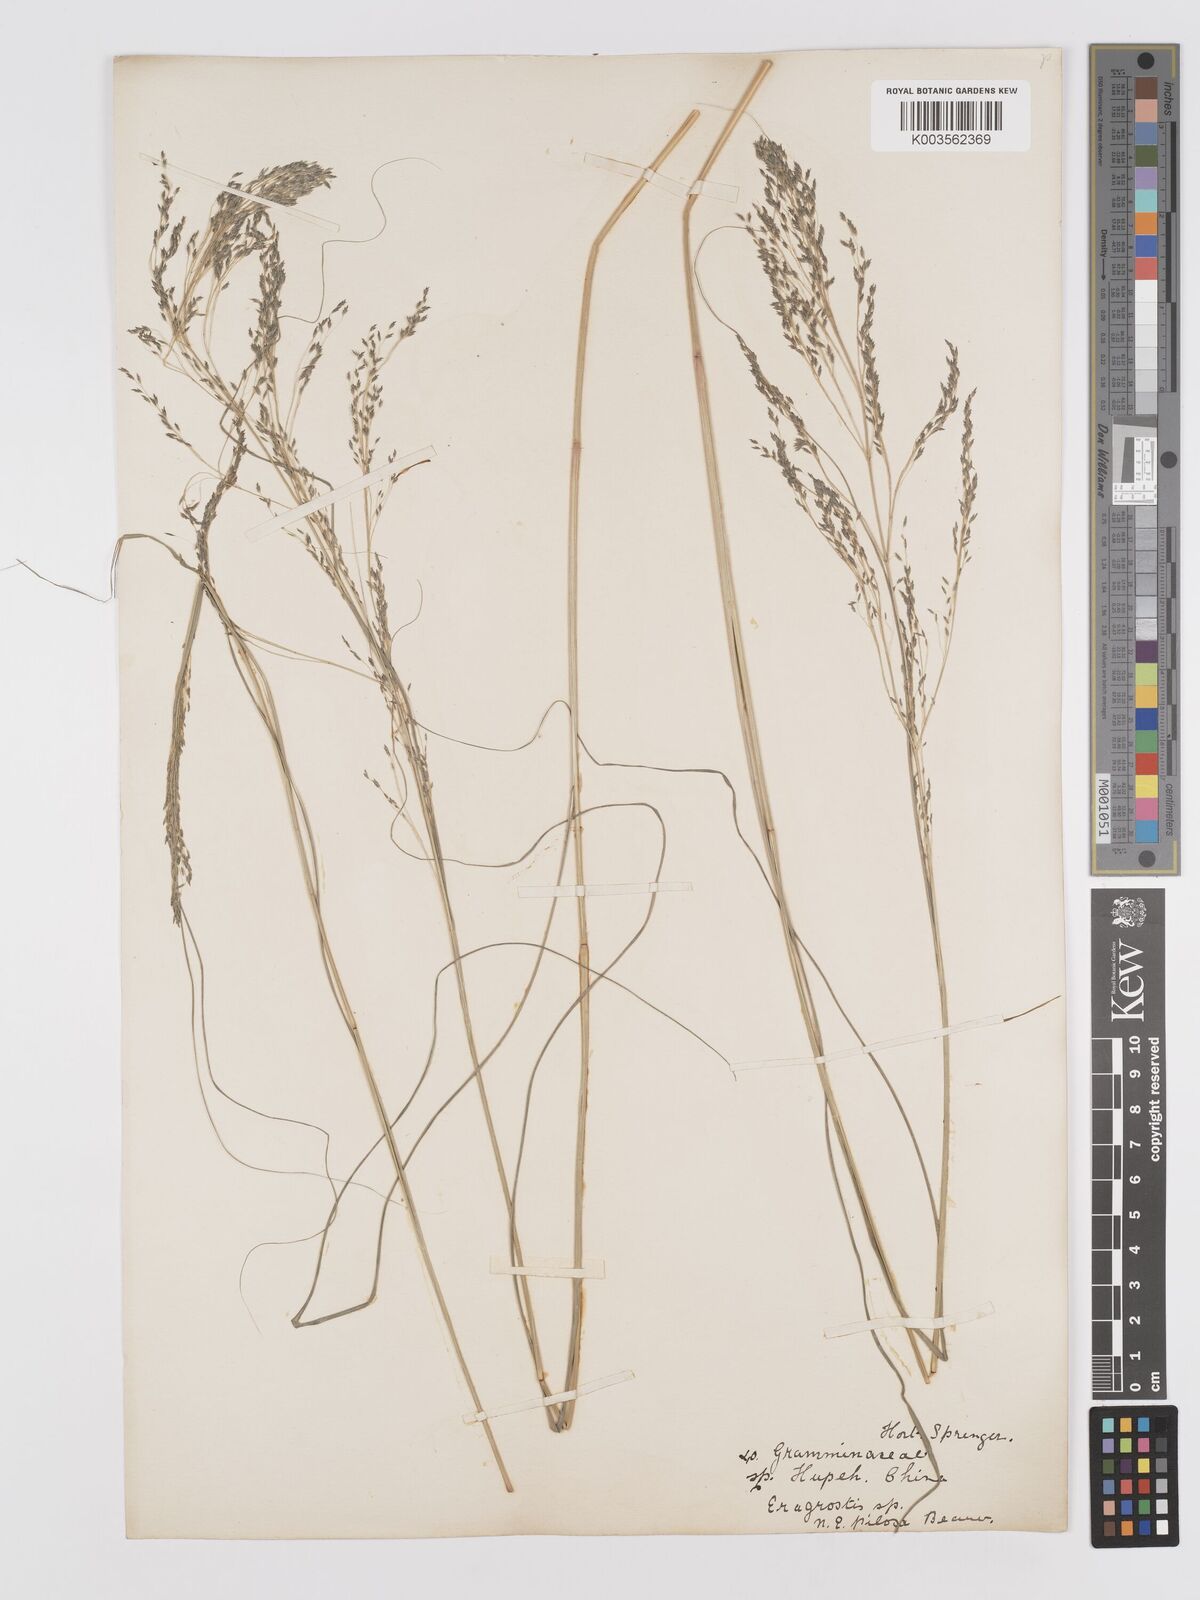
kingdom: Plantae
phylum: Tracheophyta
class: Liliopsida
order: Poales
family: Poaceae
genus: Eragrostis
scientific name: Eragrostis
